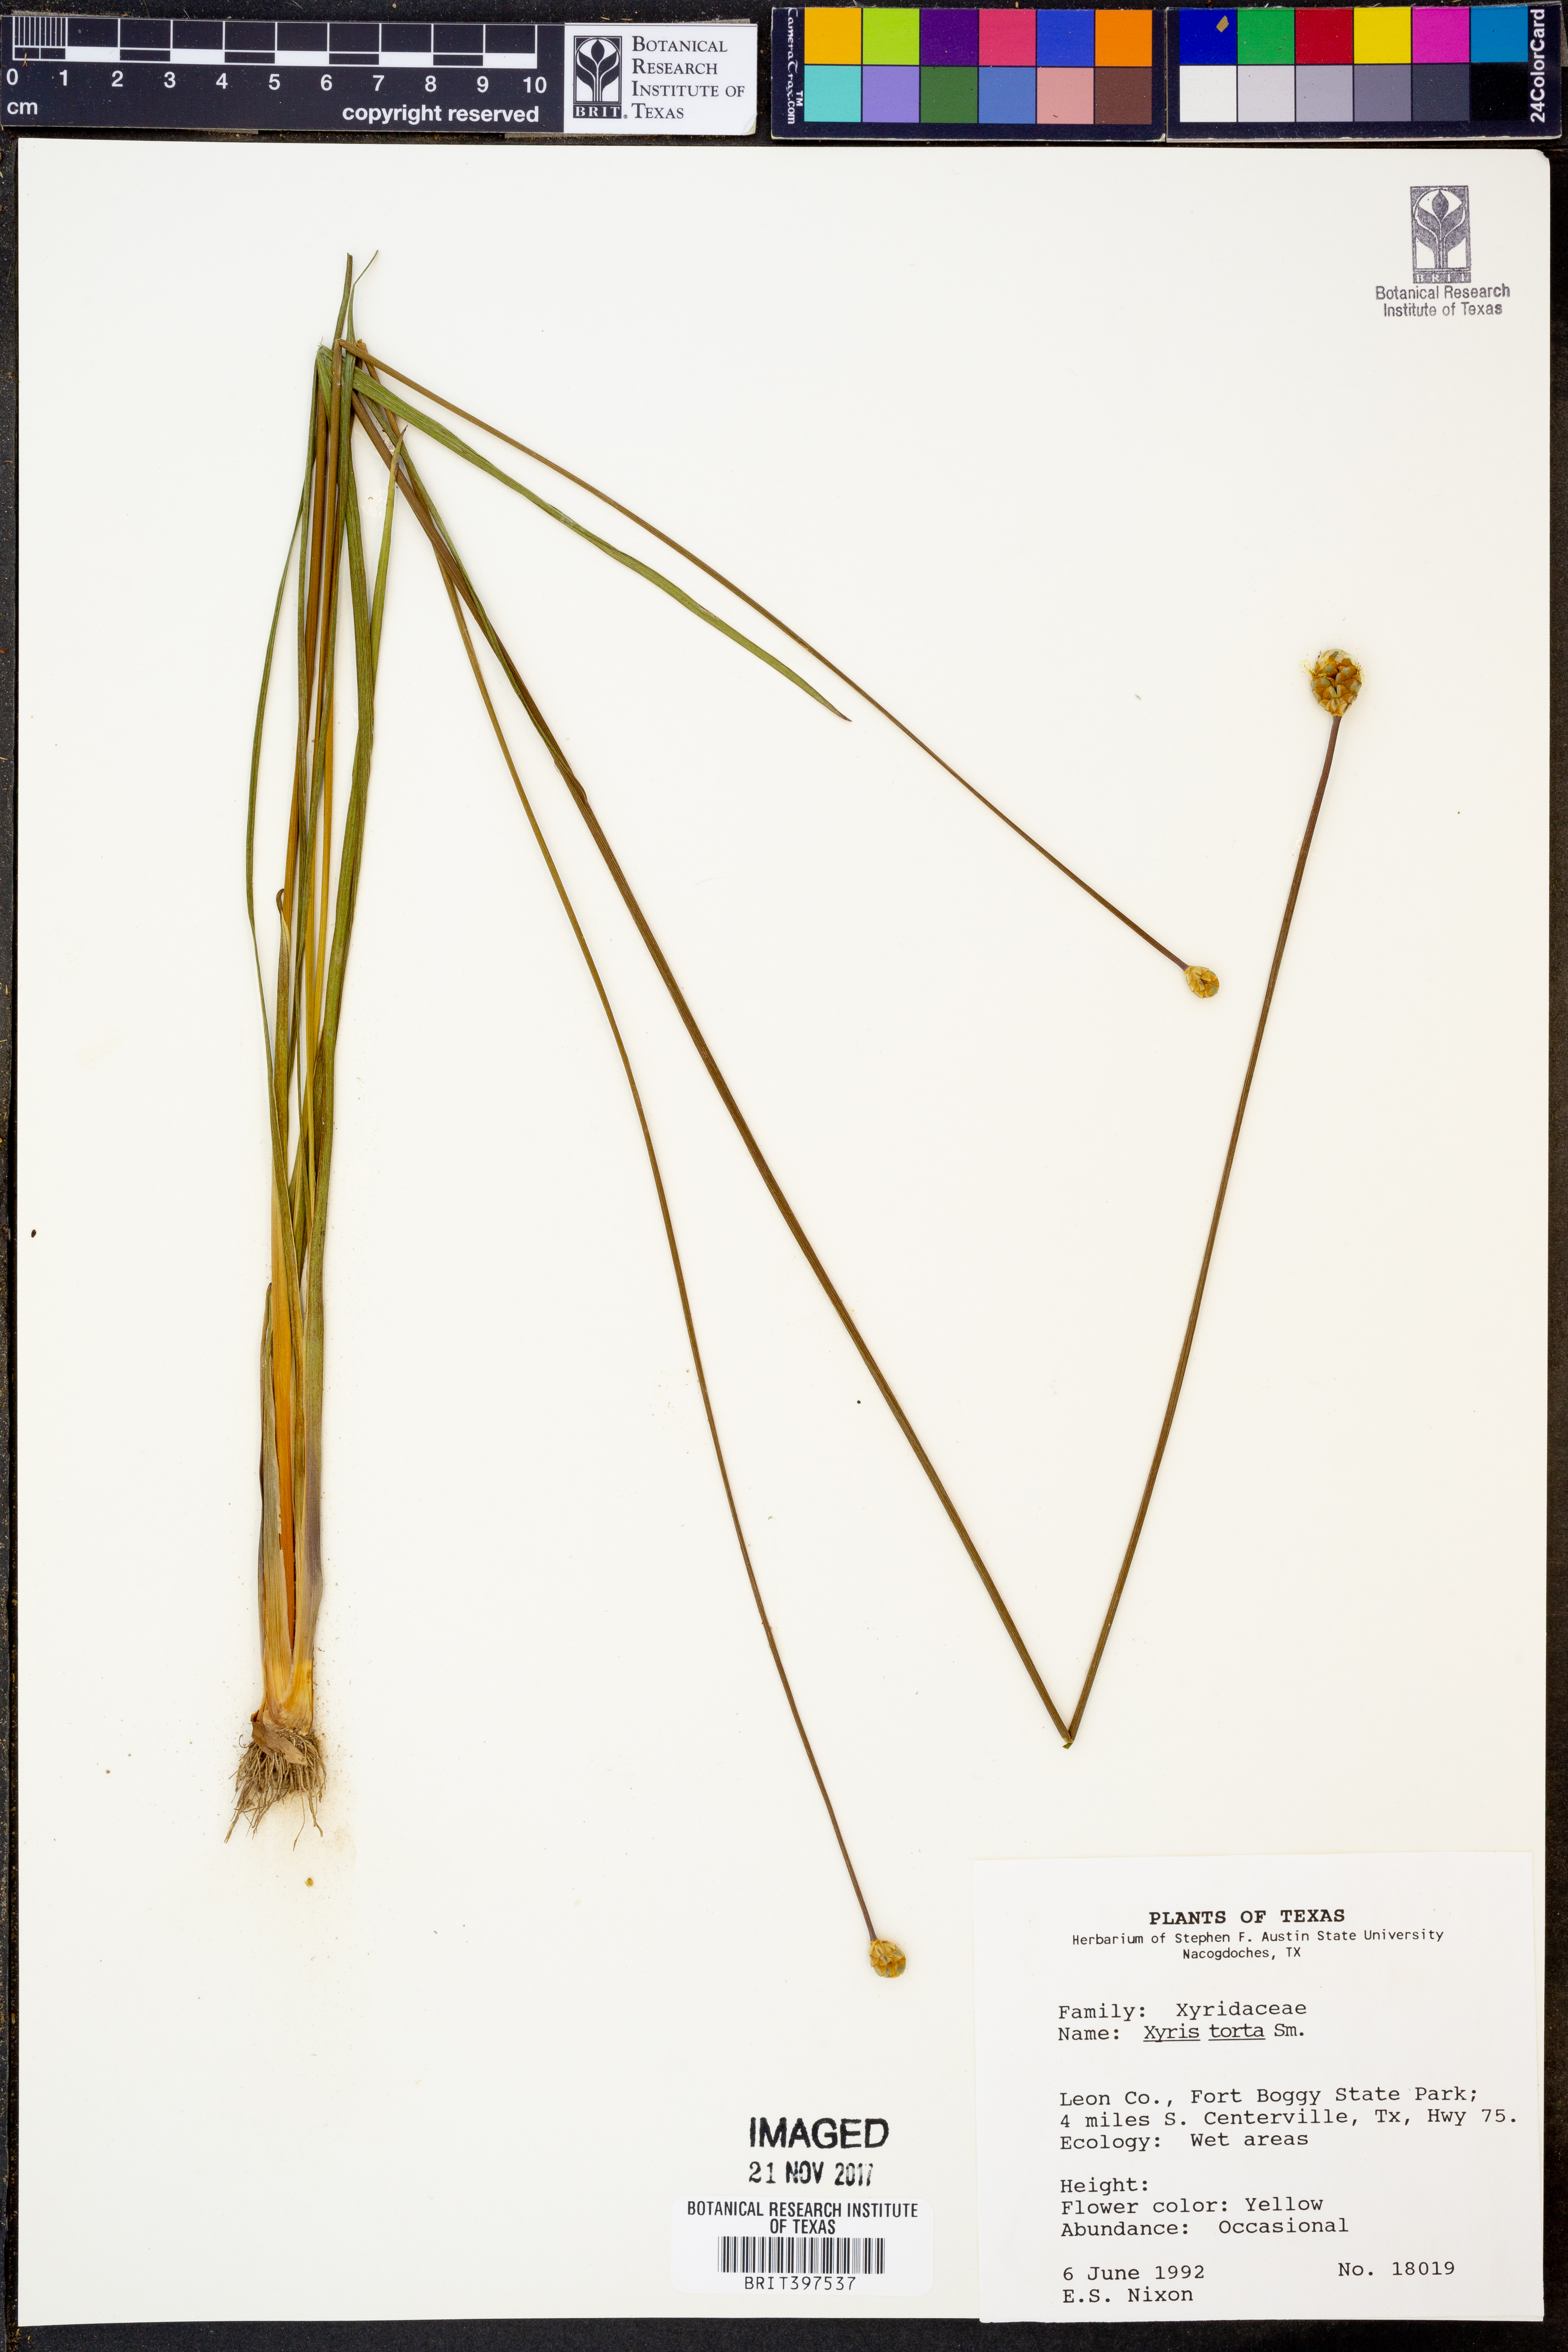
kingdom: Plantae
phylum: Tracheophyta
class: Liliopsida
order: Poales
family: Xyridaceae
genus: Xyris
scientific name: Xyris torta
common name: Common yelloweyed grass
